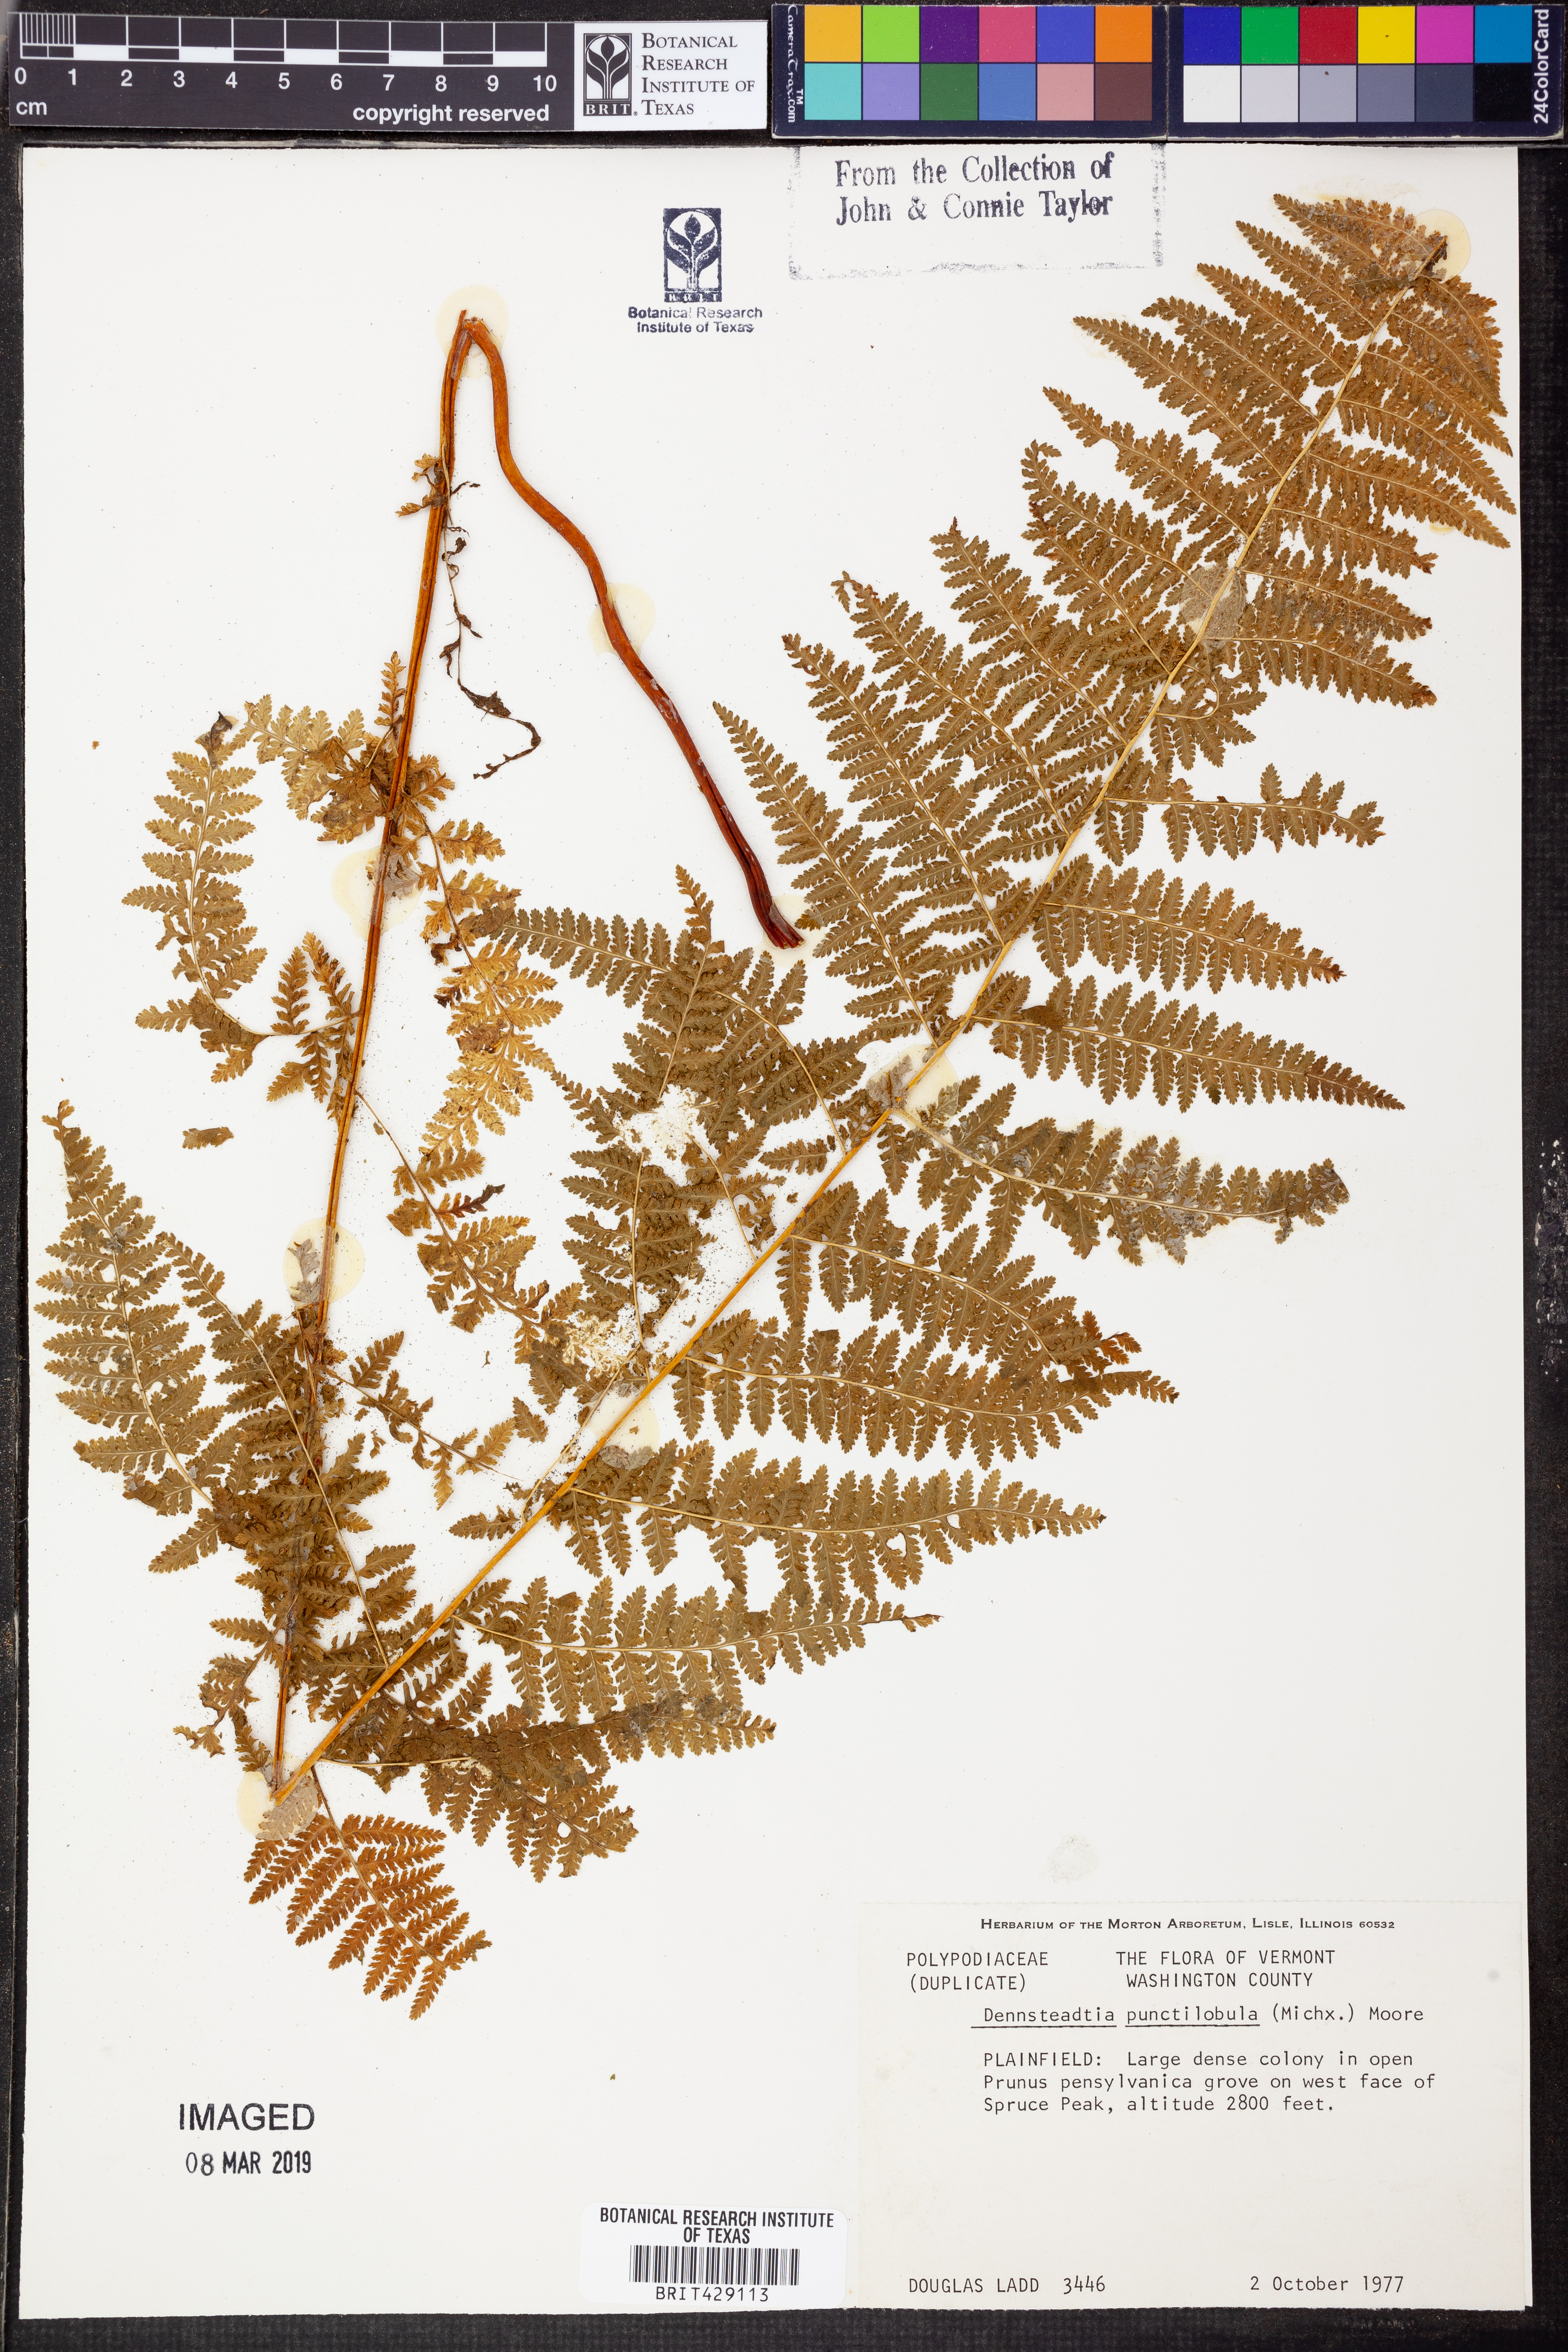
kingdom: Plantae
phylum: Tracheophyta
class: Polypodiopsida
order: Polypodiales
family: Dennstaedtiaceae
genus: Sitobolium
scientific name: Sitobolium punctilobum
